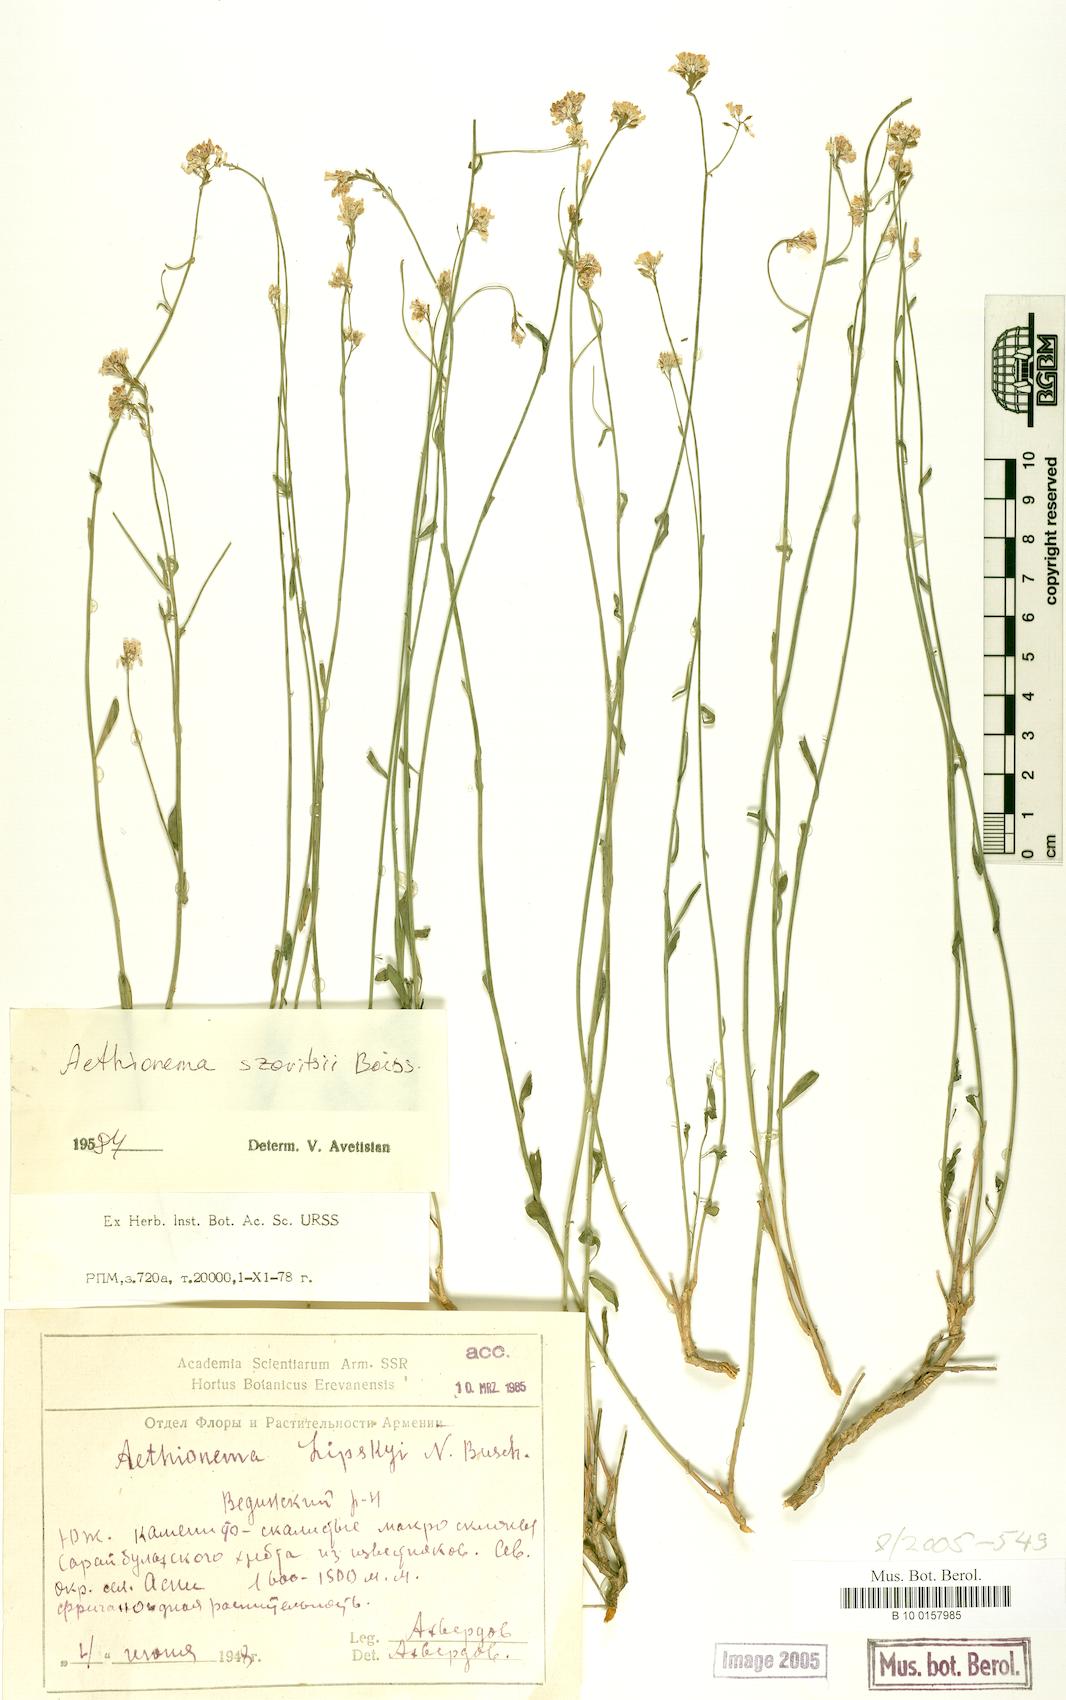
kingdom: Plantae
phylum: Tracheophyta
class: Magnoliopsida
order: Brassicales
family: Brassicaceae
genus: Aethionema
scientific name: Aethionema virgatum
